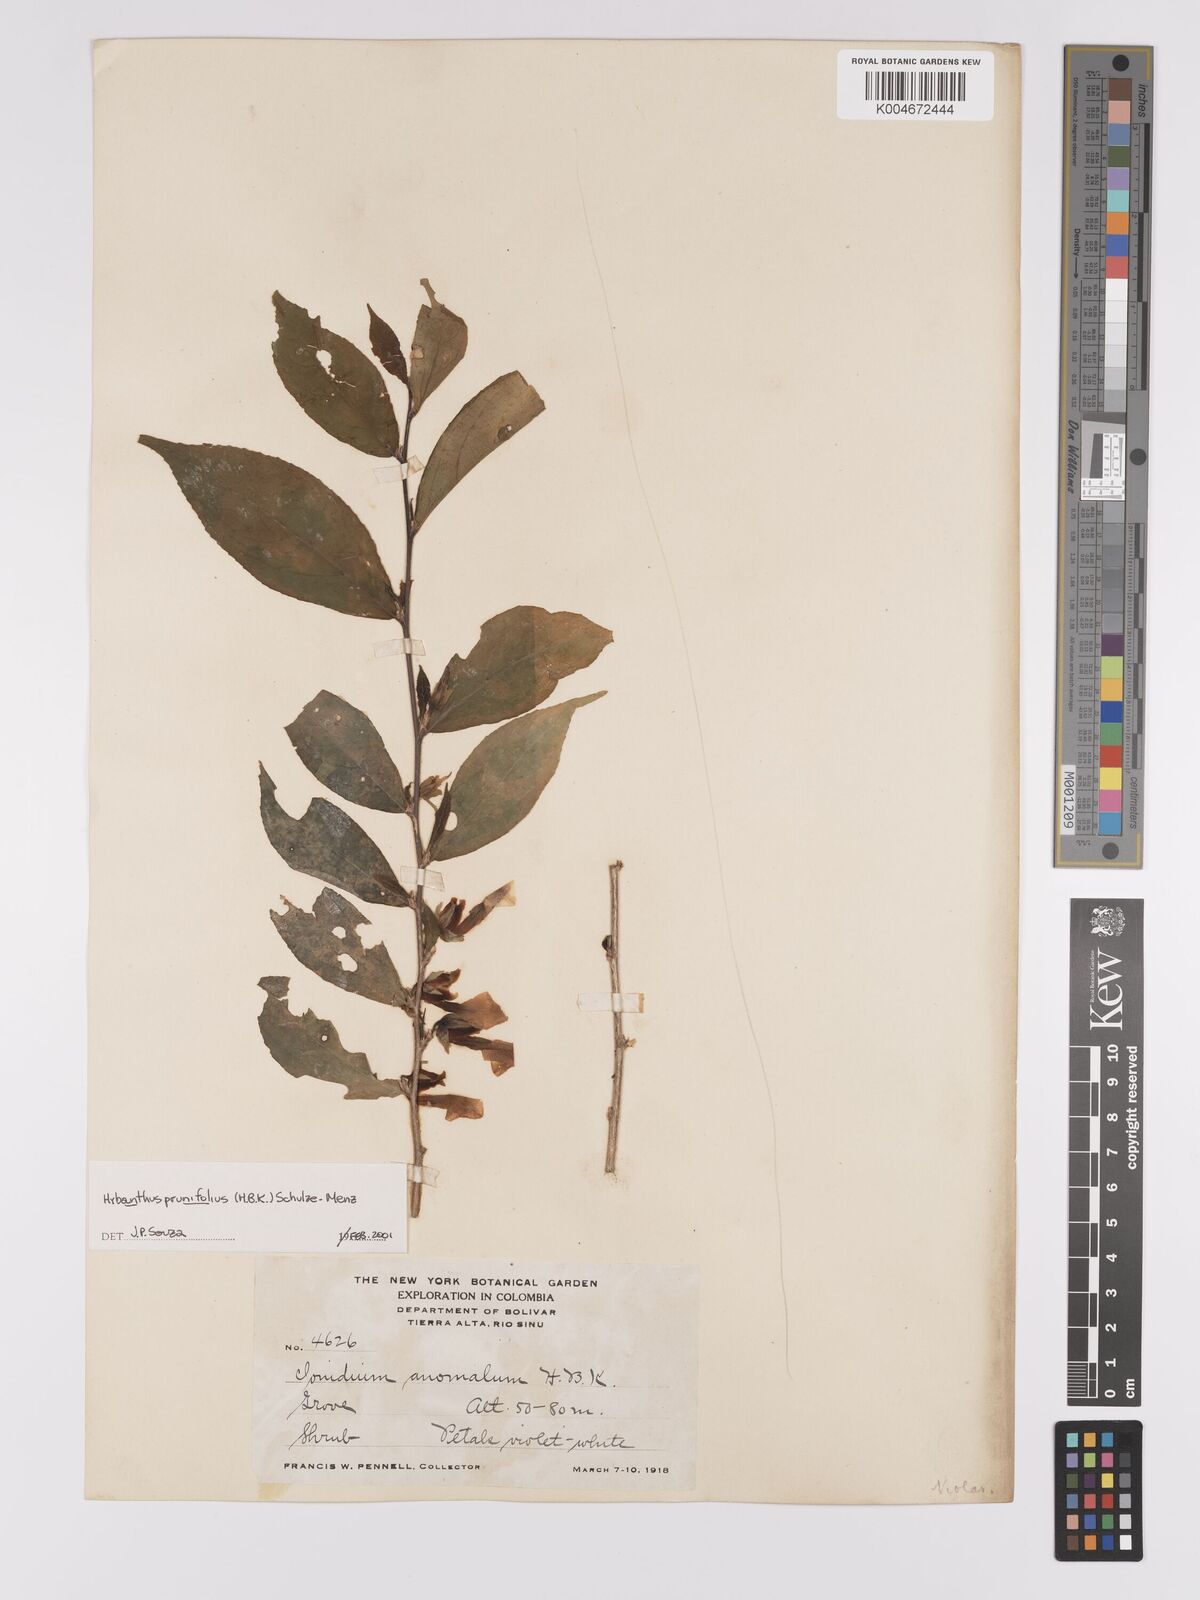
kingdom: Plantae
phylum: Tracheophyta
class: Magnoliopsida
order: Malpighiales
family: Violaceae
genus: Pombalia
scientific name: Pombalia prunifolia
